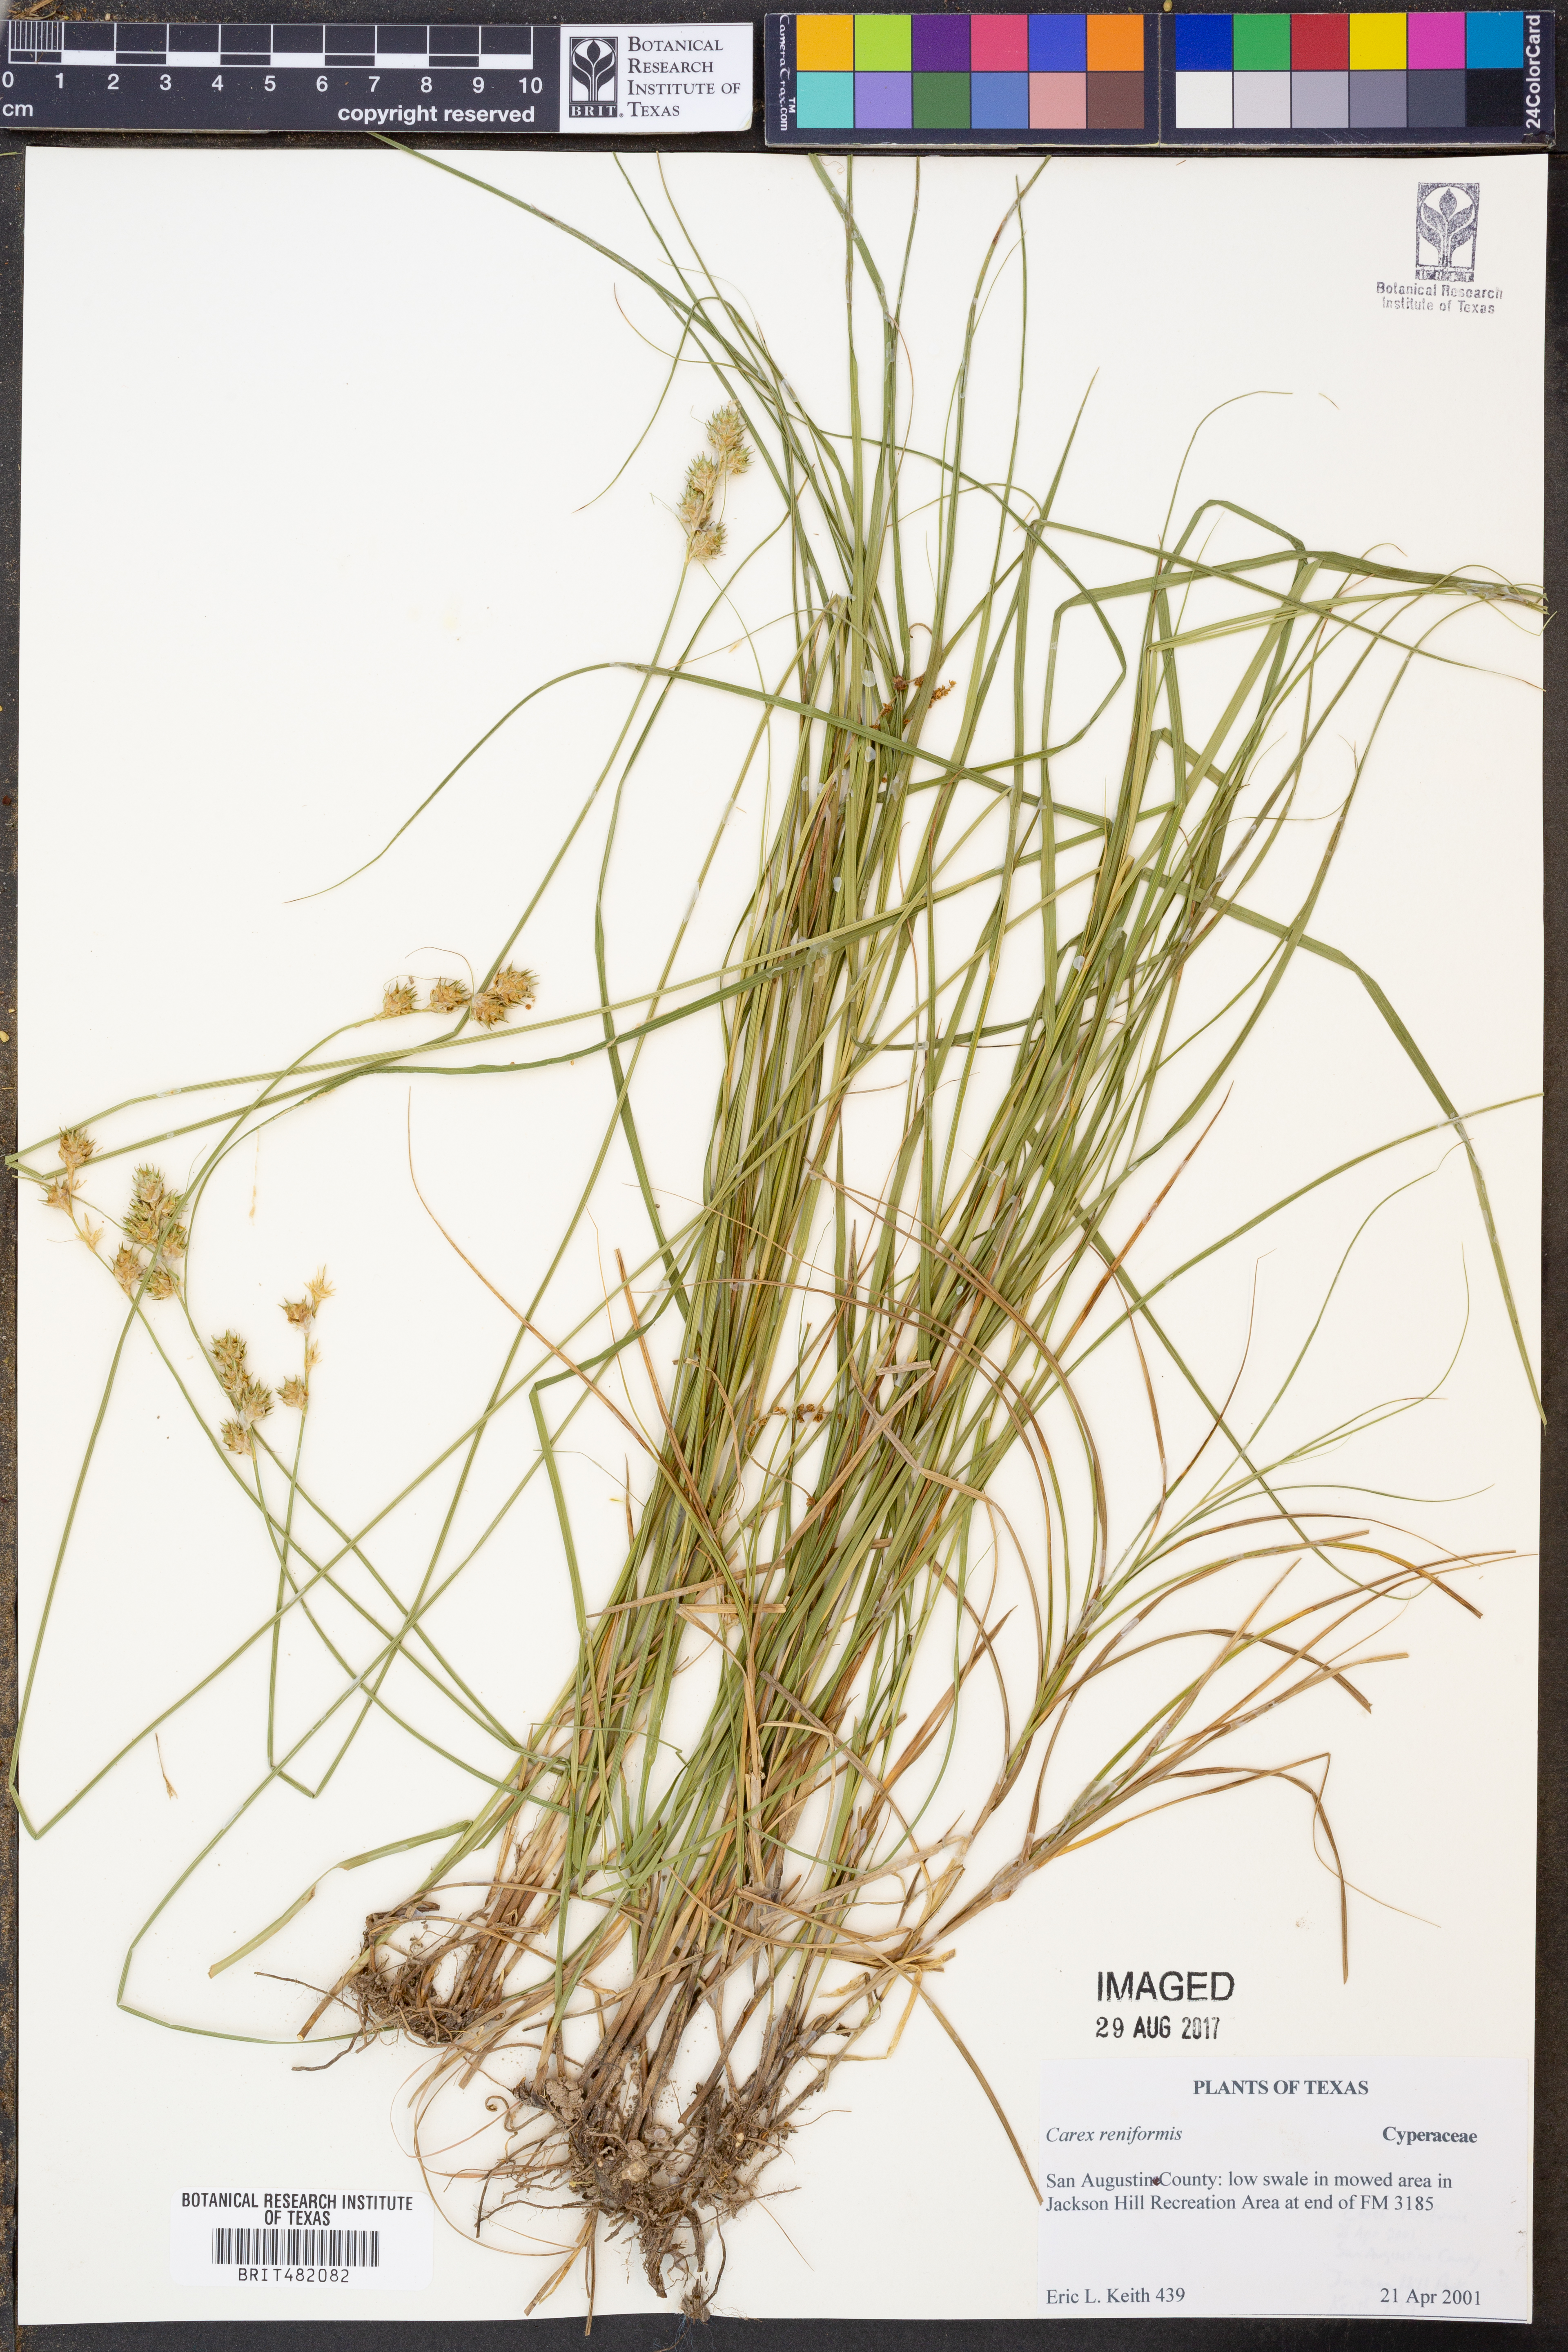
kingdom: Plantae
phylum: Tracheophyta
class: Liliopsida
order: Poales
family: Cyperaceae
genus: Carex
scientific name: Carex reniformis
